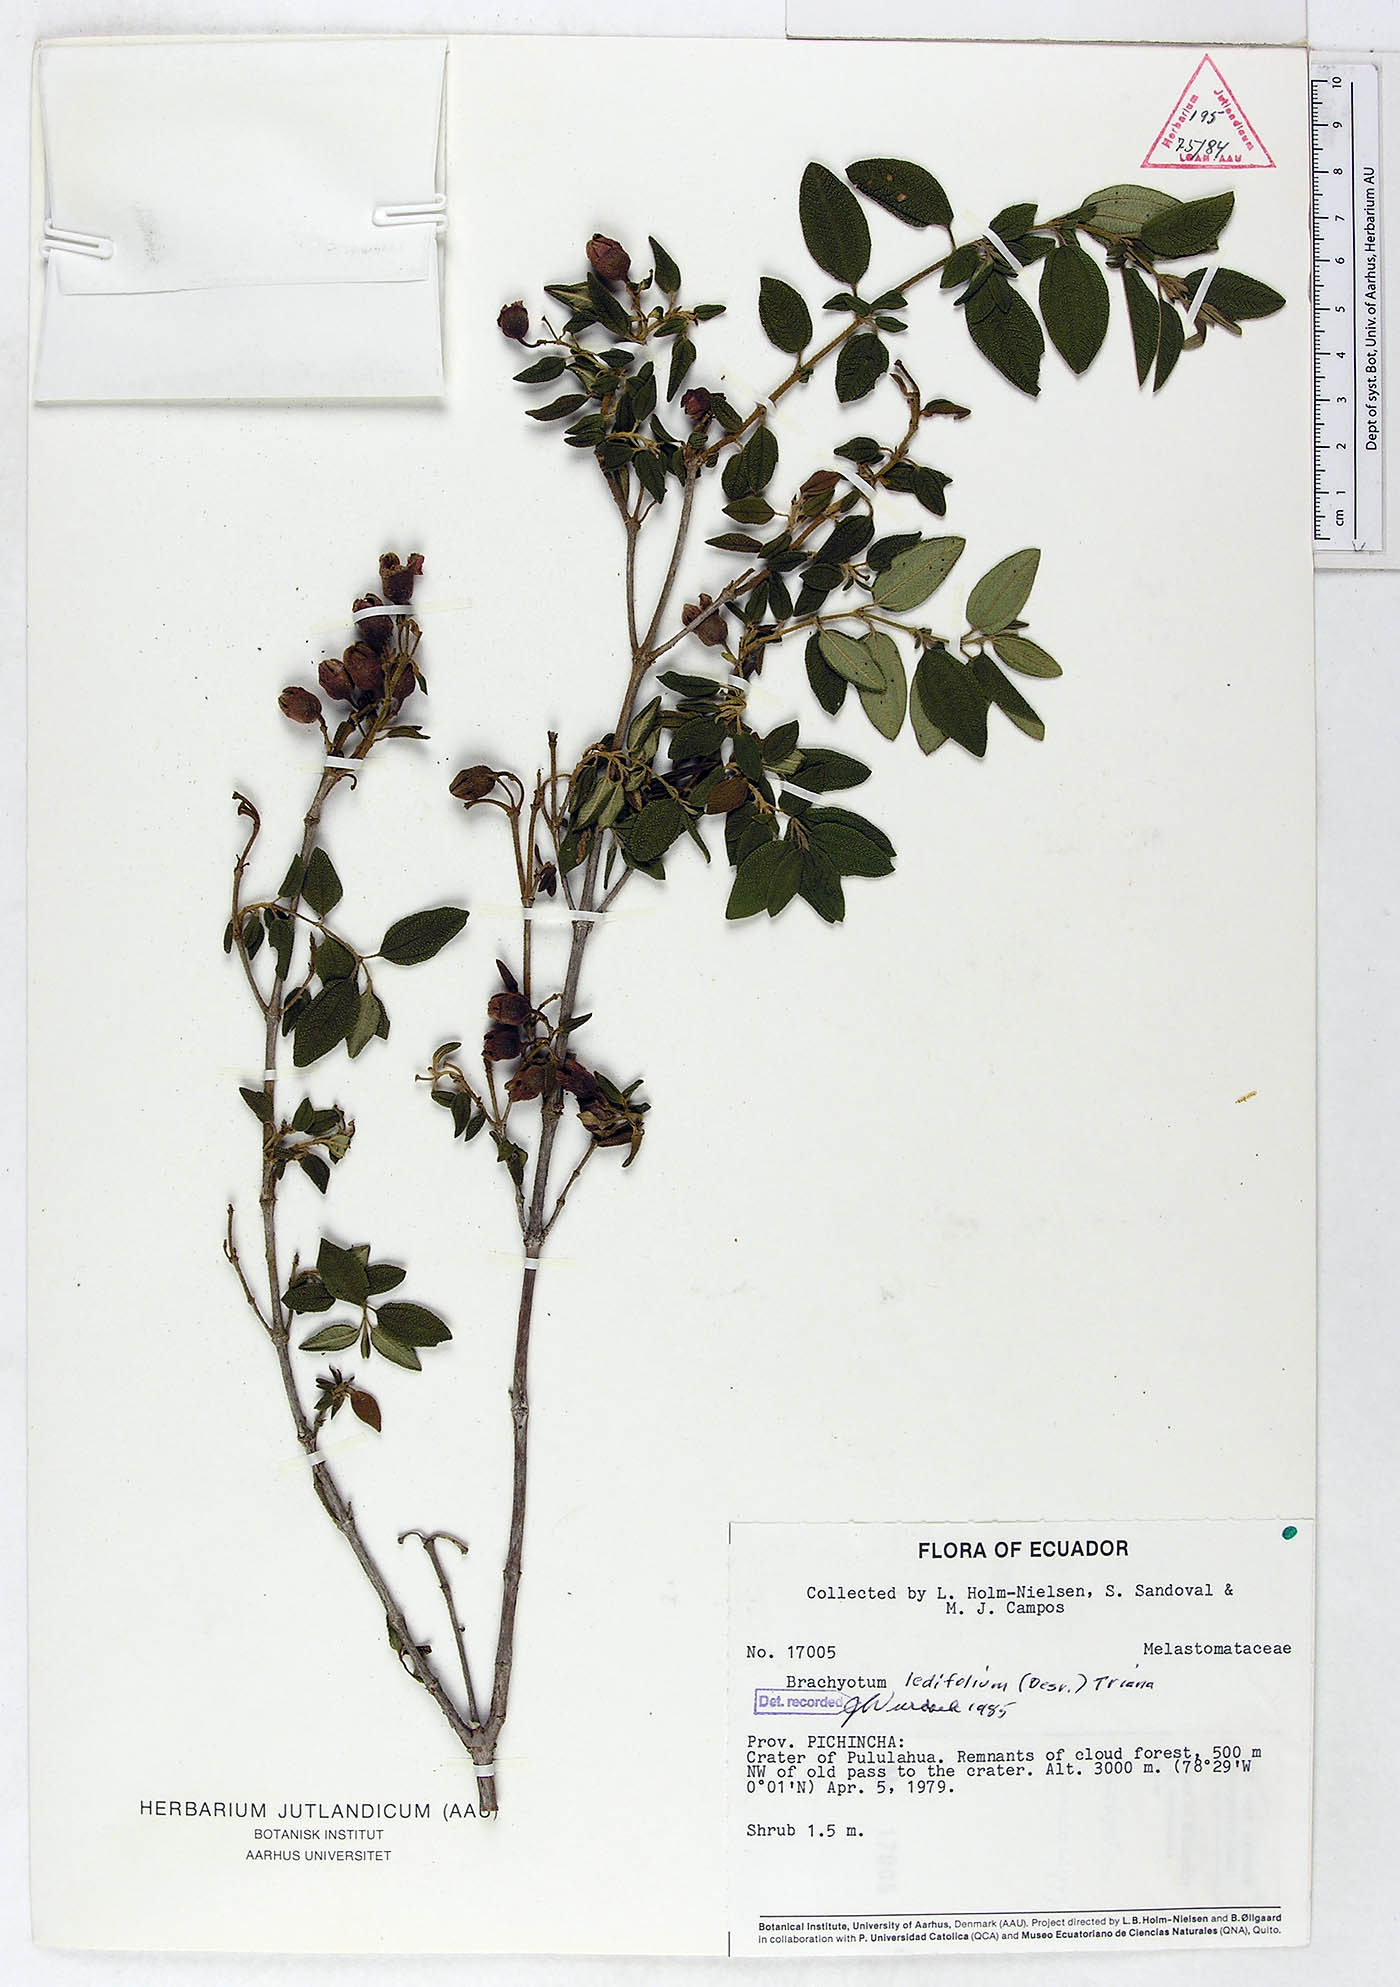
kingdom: Plantae
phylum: Tracheophyta
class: Magnoliopsida
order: Myrtales
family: Melastomataceae
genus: Brachyotum
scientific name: Brachyotum ledifolium
